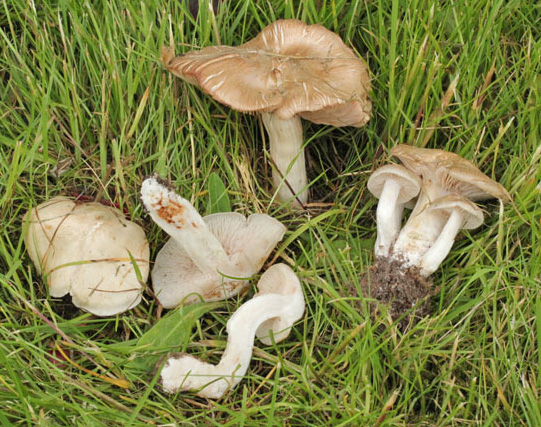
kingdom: Fungi
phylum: Basidiomycota
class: Agaricomycetes
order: Agaricales
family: Entolomataceae
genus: Entoloma
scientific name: Entoloma sepium
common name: slåen-rødblad
